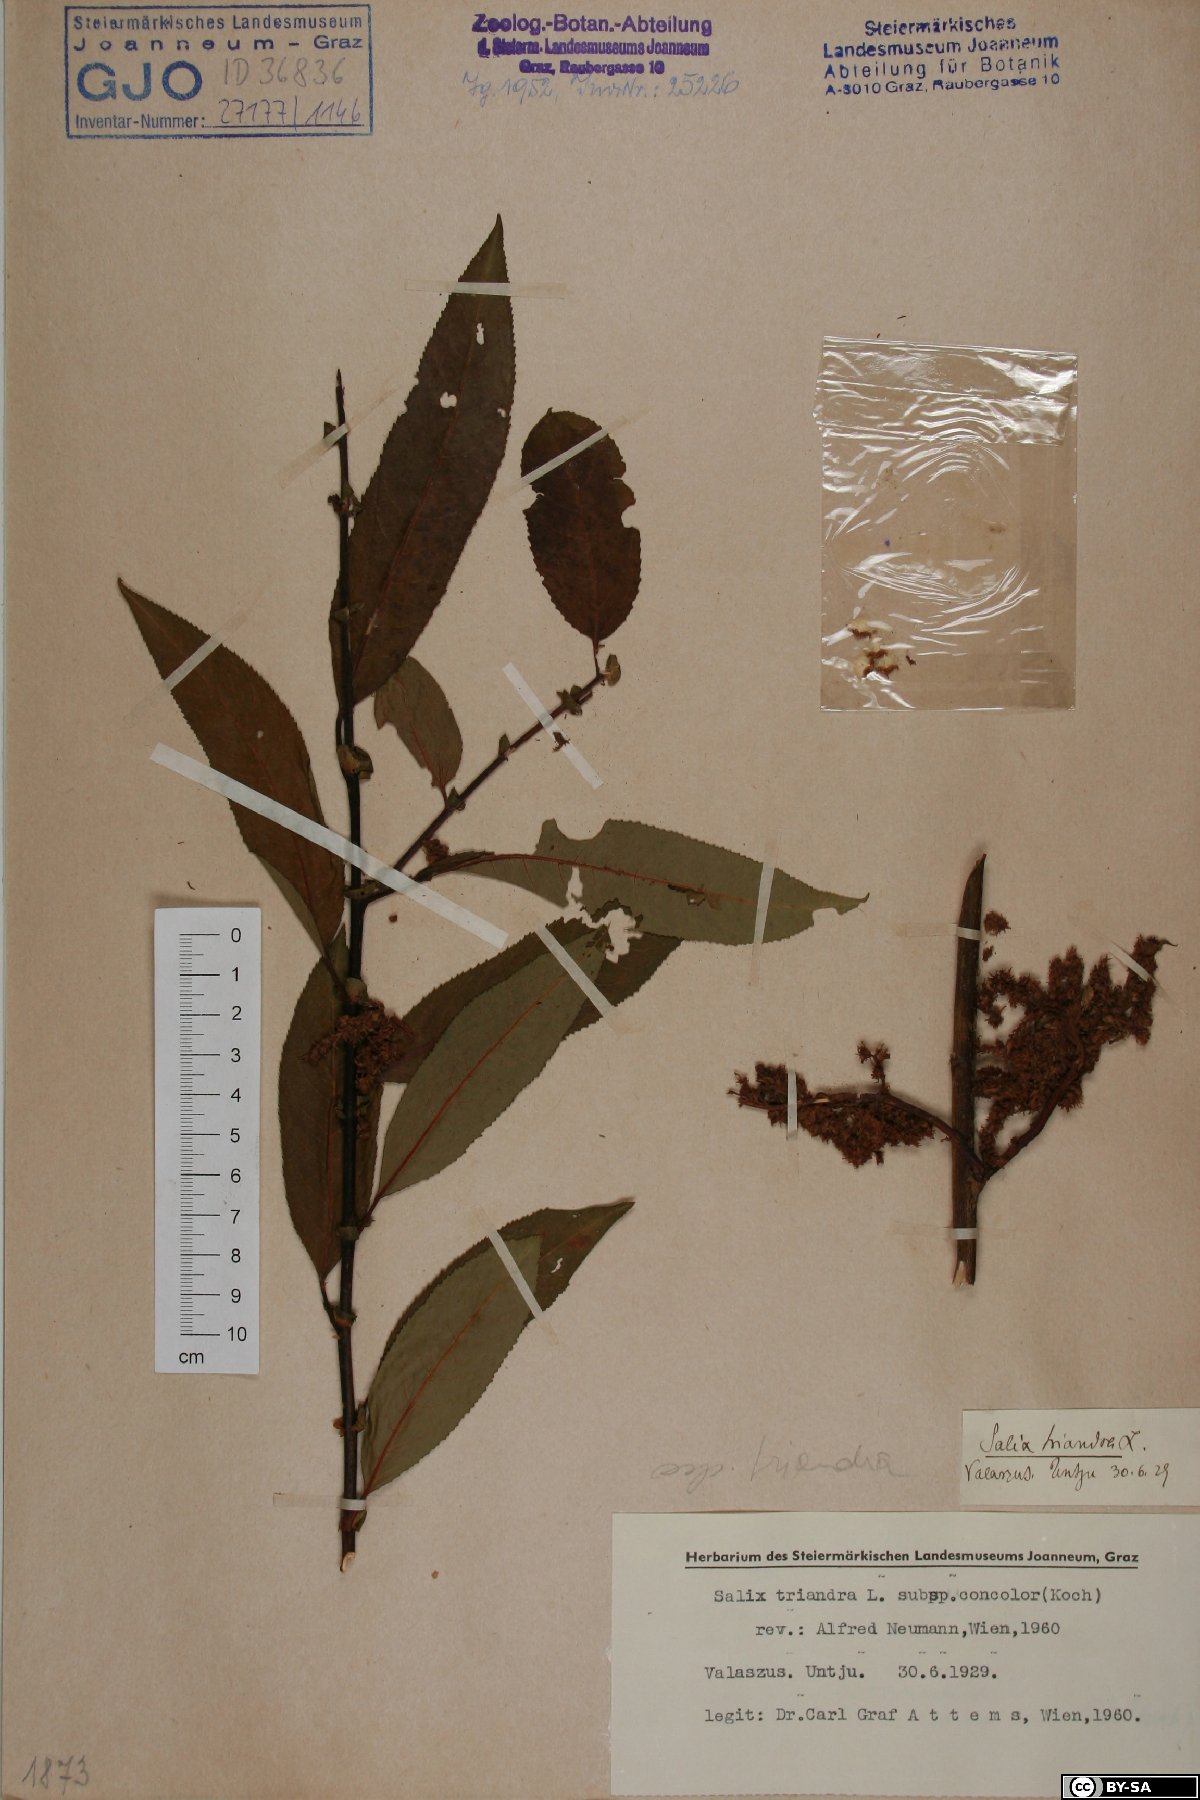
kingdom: Plantae
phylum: Tracheophyta
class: Magnoliopsida
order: Malpighiales
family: Salicaceae
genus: Salix
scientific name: Salix triandra
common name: Almond willow
